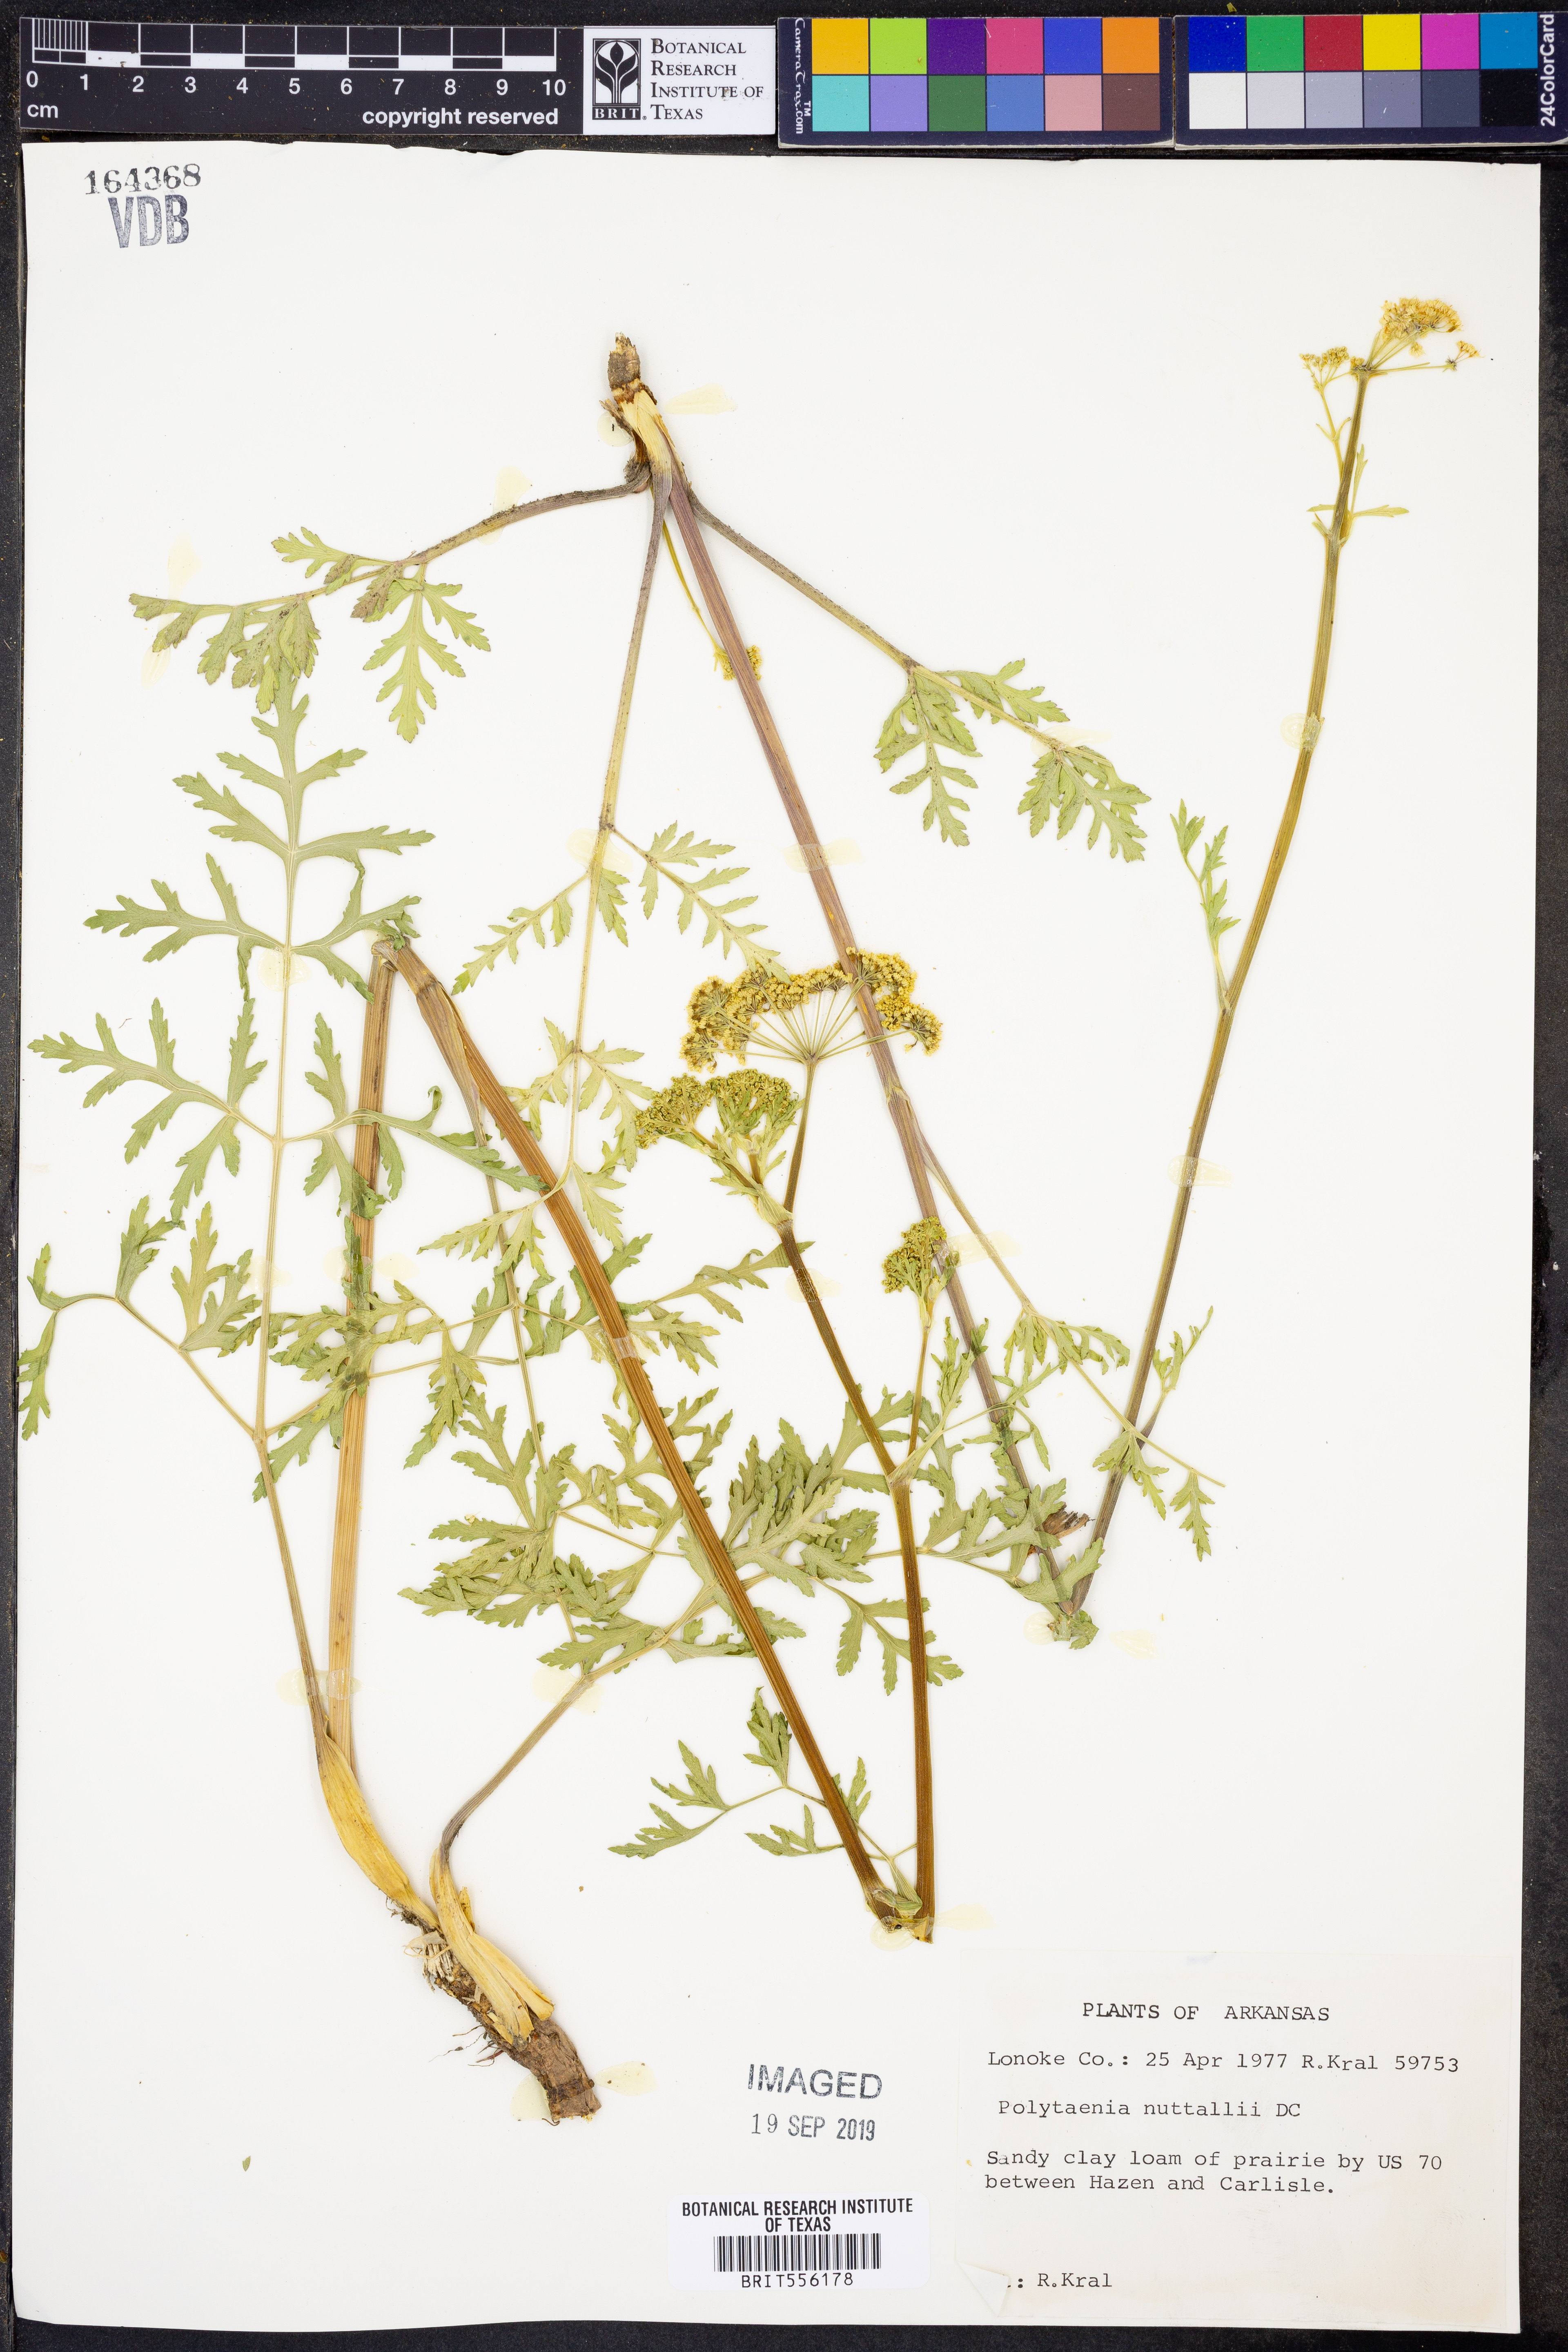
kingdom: Plantae
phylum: Tracheophyta
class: Magnoliopsida
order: Apiales
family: Apiaceae
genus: Polytaenia
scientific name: Polytaenia nuttallii
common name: Prairie-parsley
